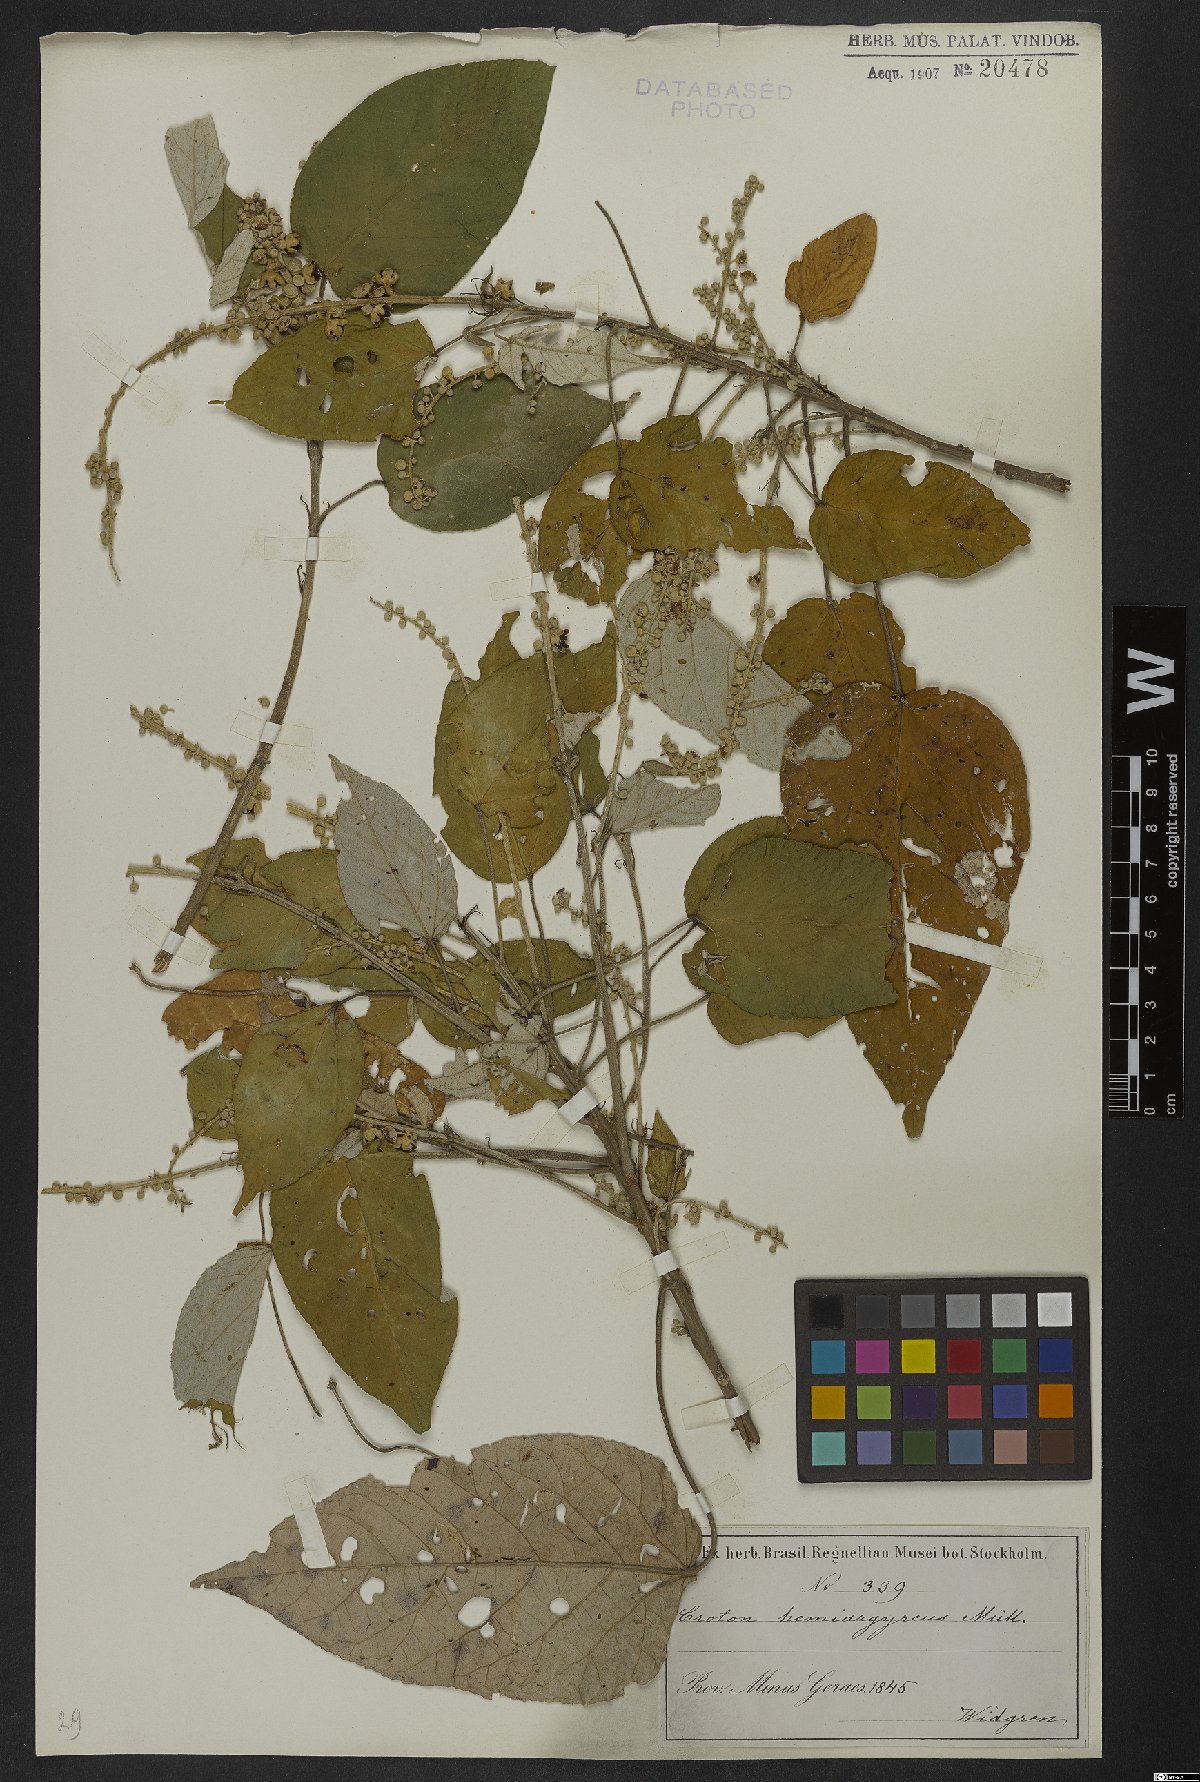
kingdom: Plantae
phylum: Tracheophyta
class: Magnoliopsida
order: Malpighiales
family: Euphorbiaceae
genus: Croton
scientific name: Croton hemiargyreus
